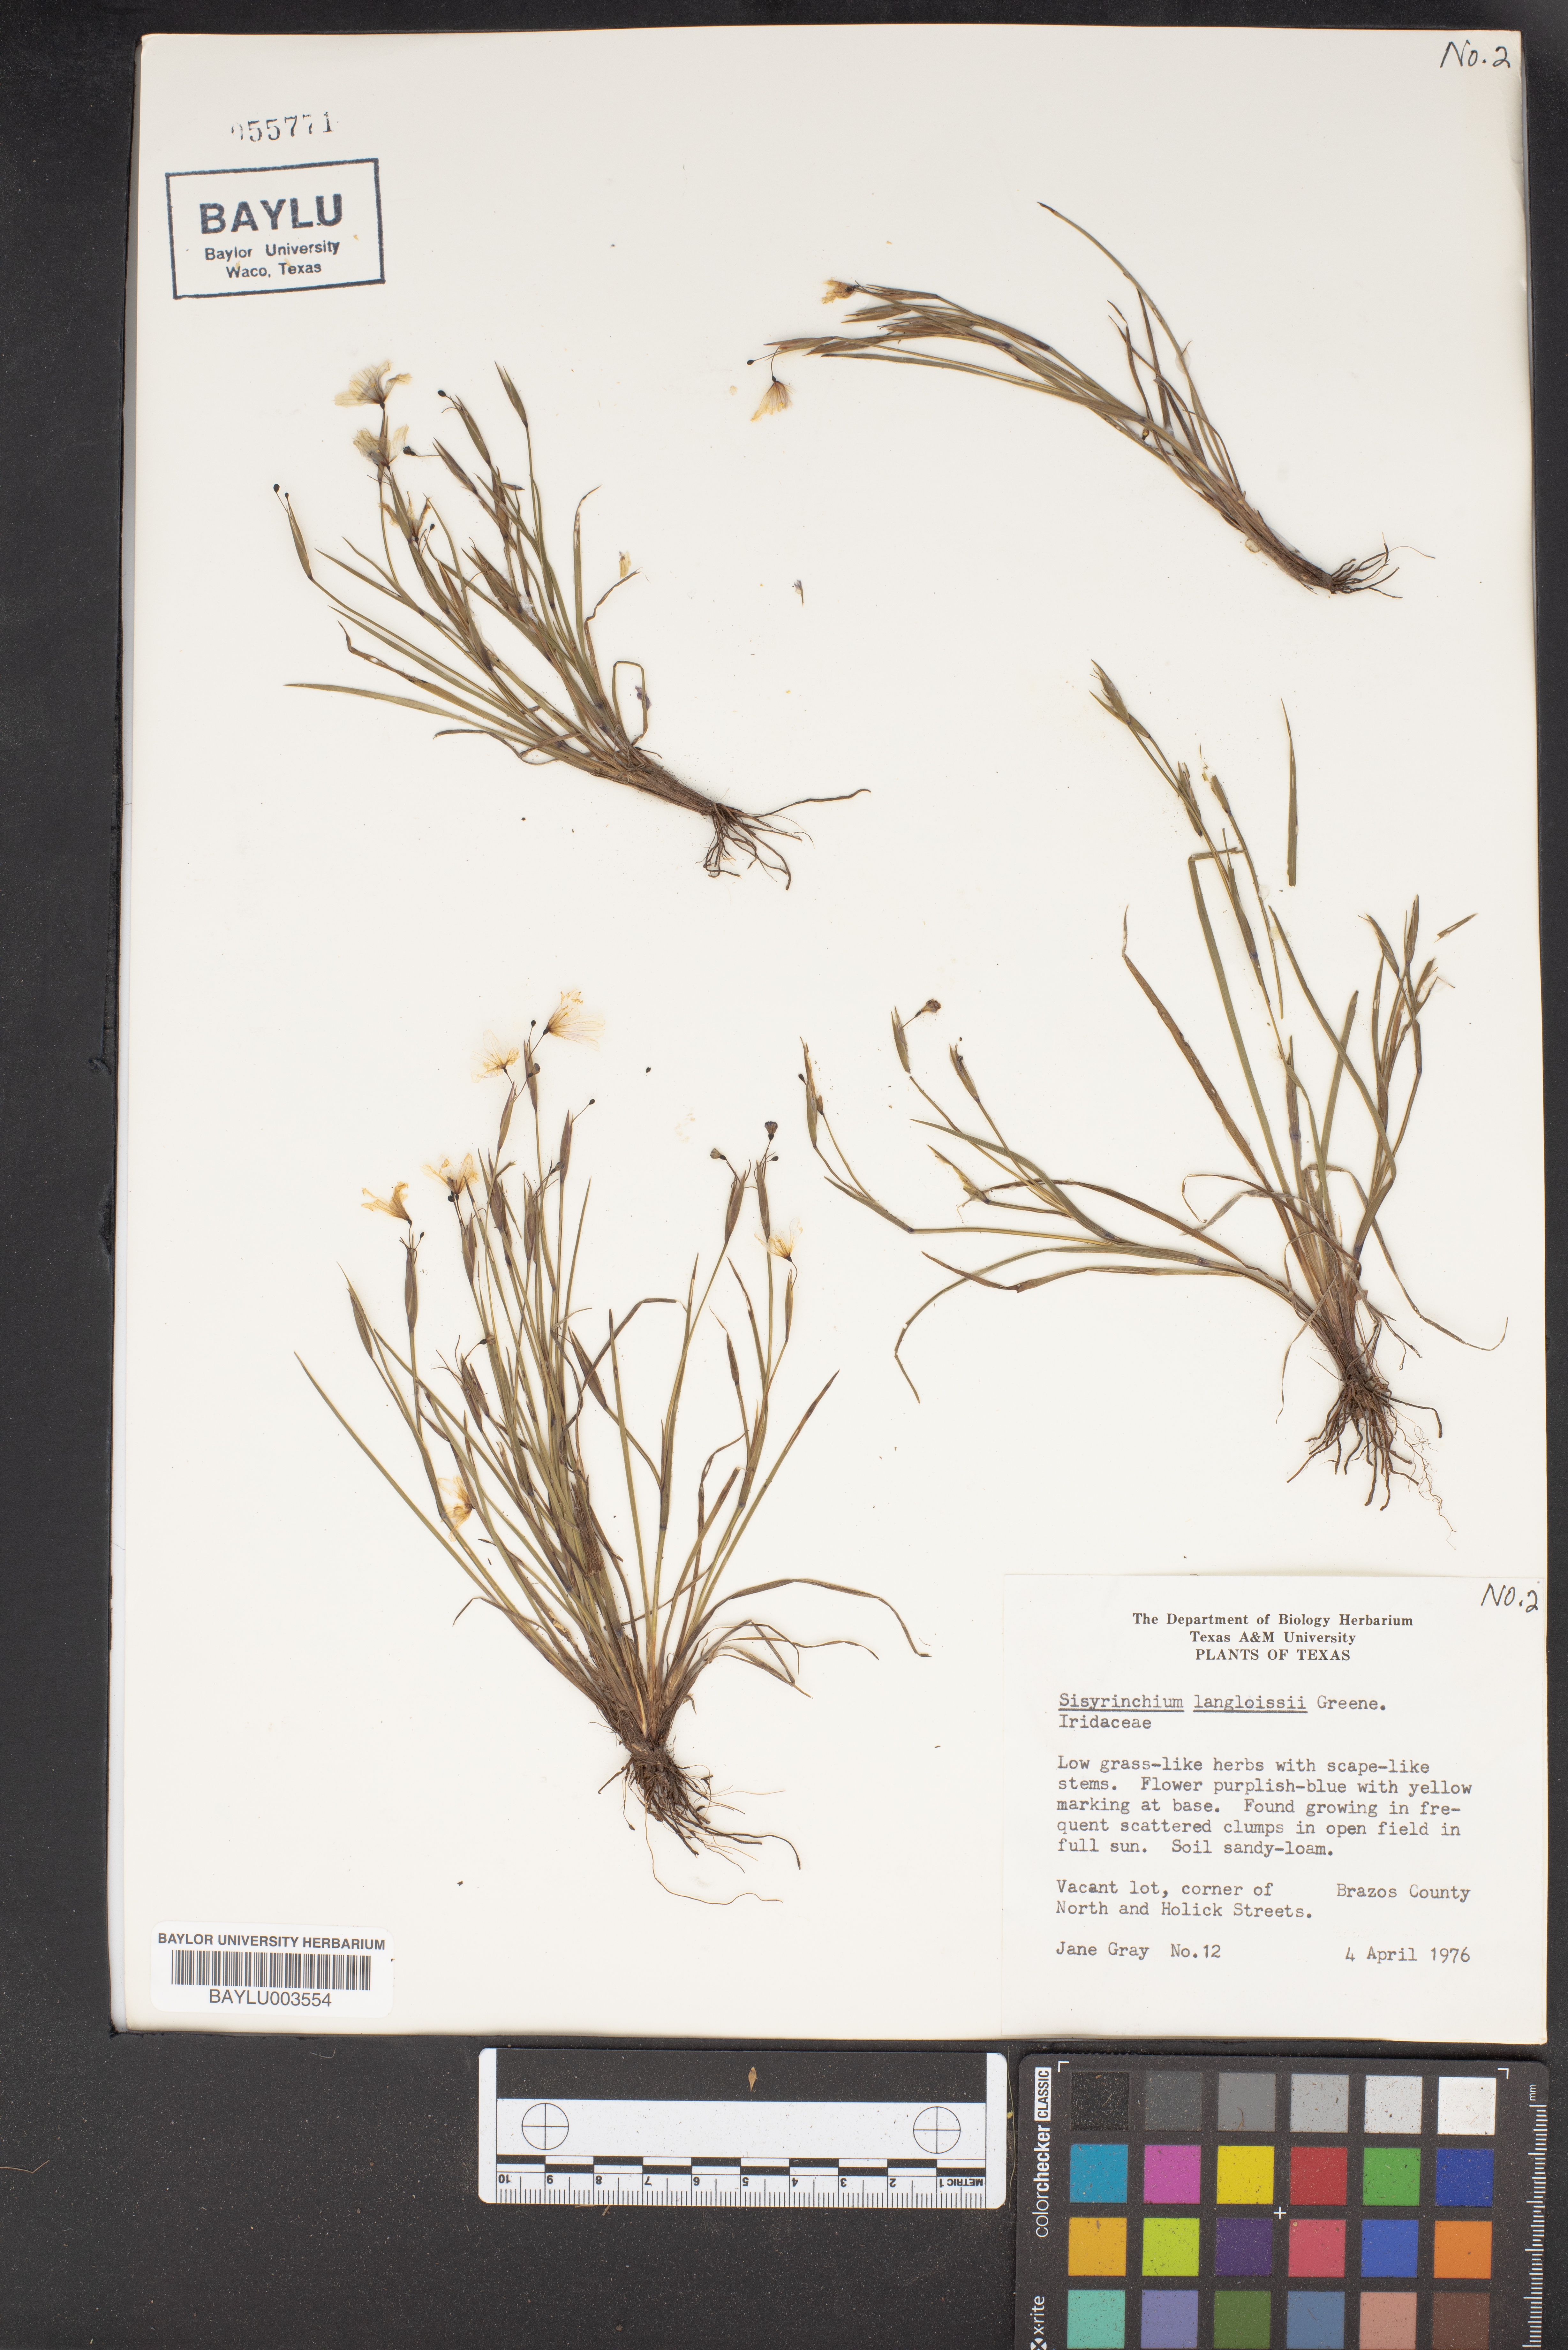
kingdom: Plantae
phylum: Tracheophyta
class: Liliopsida
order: Asparagales
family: Iridaceae
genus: Sisyrinchium
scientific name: Sisyrinchium langloisii
